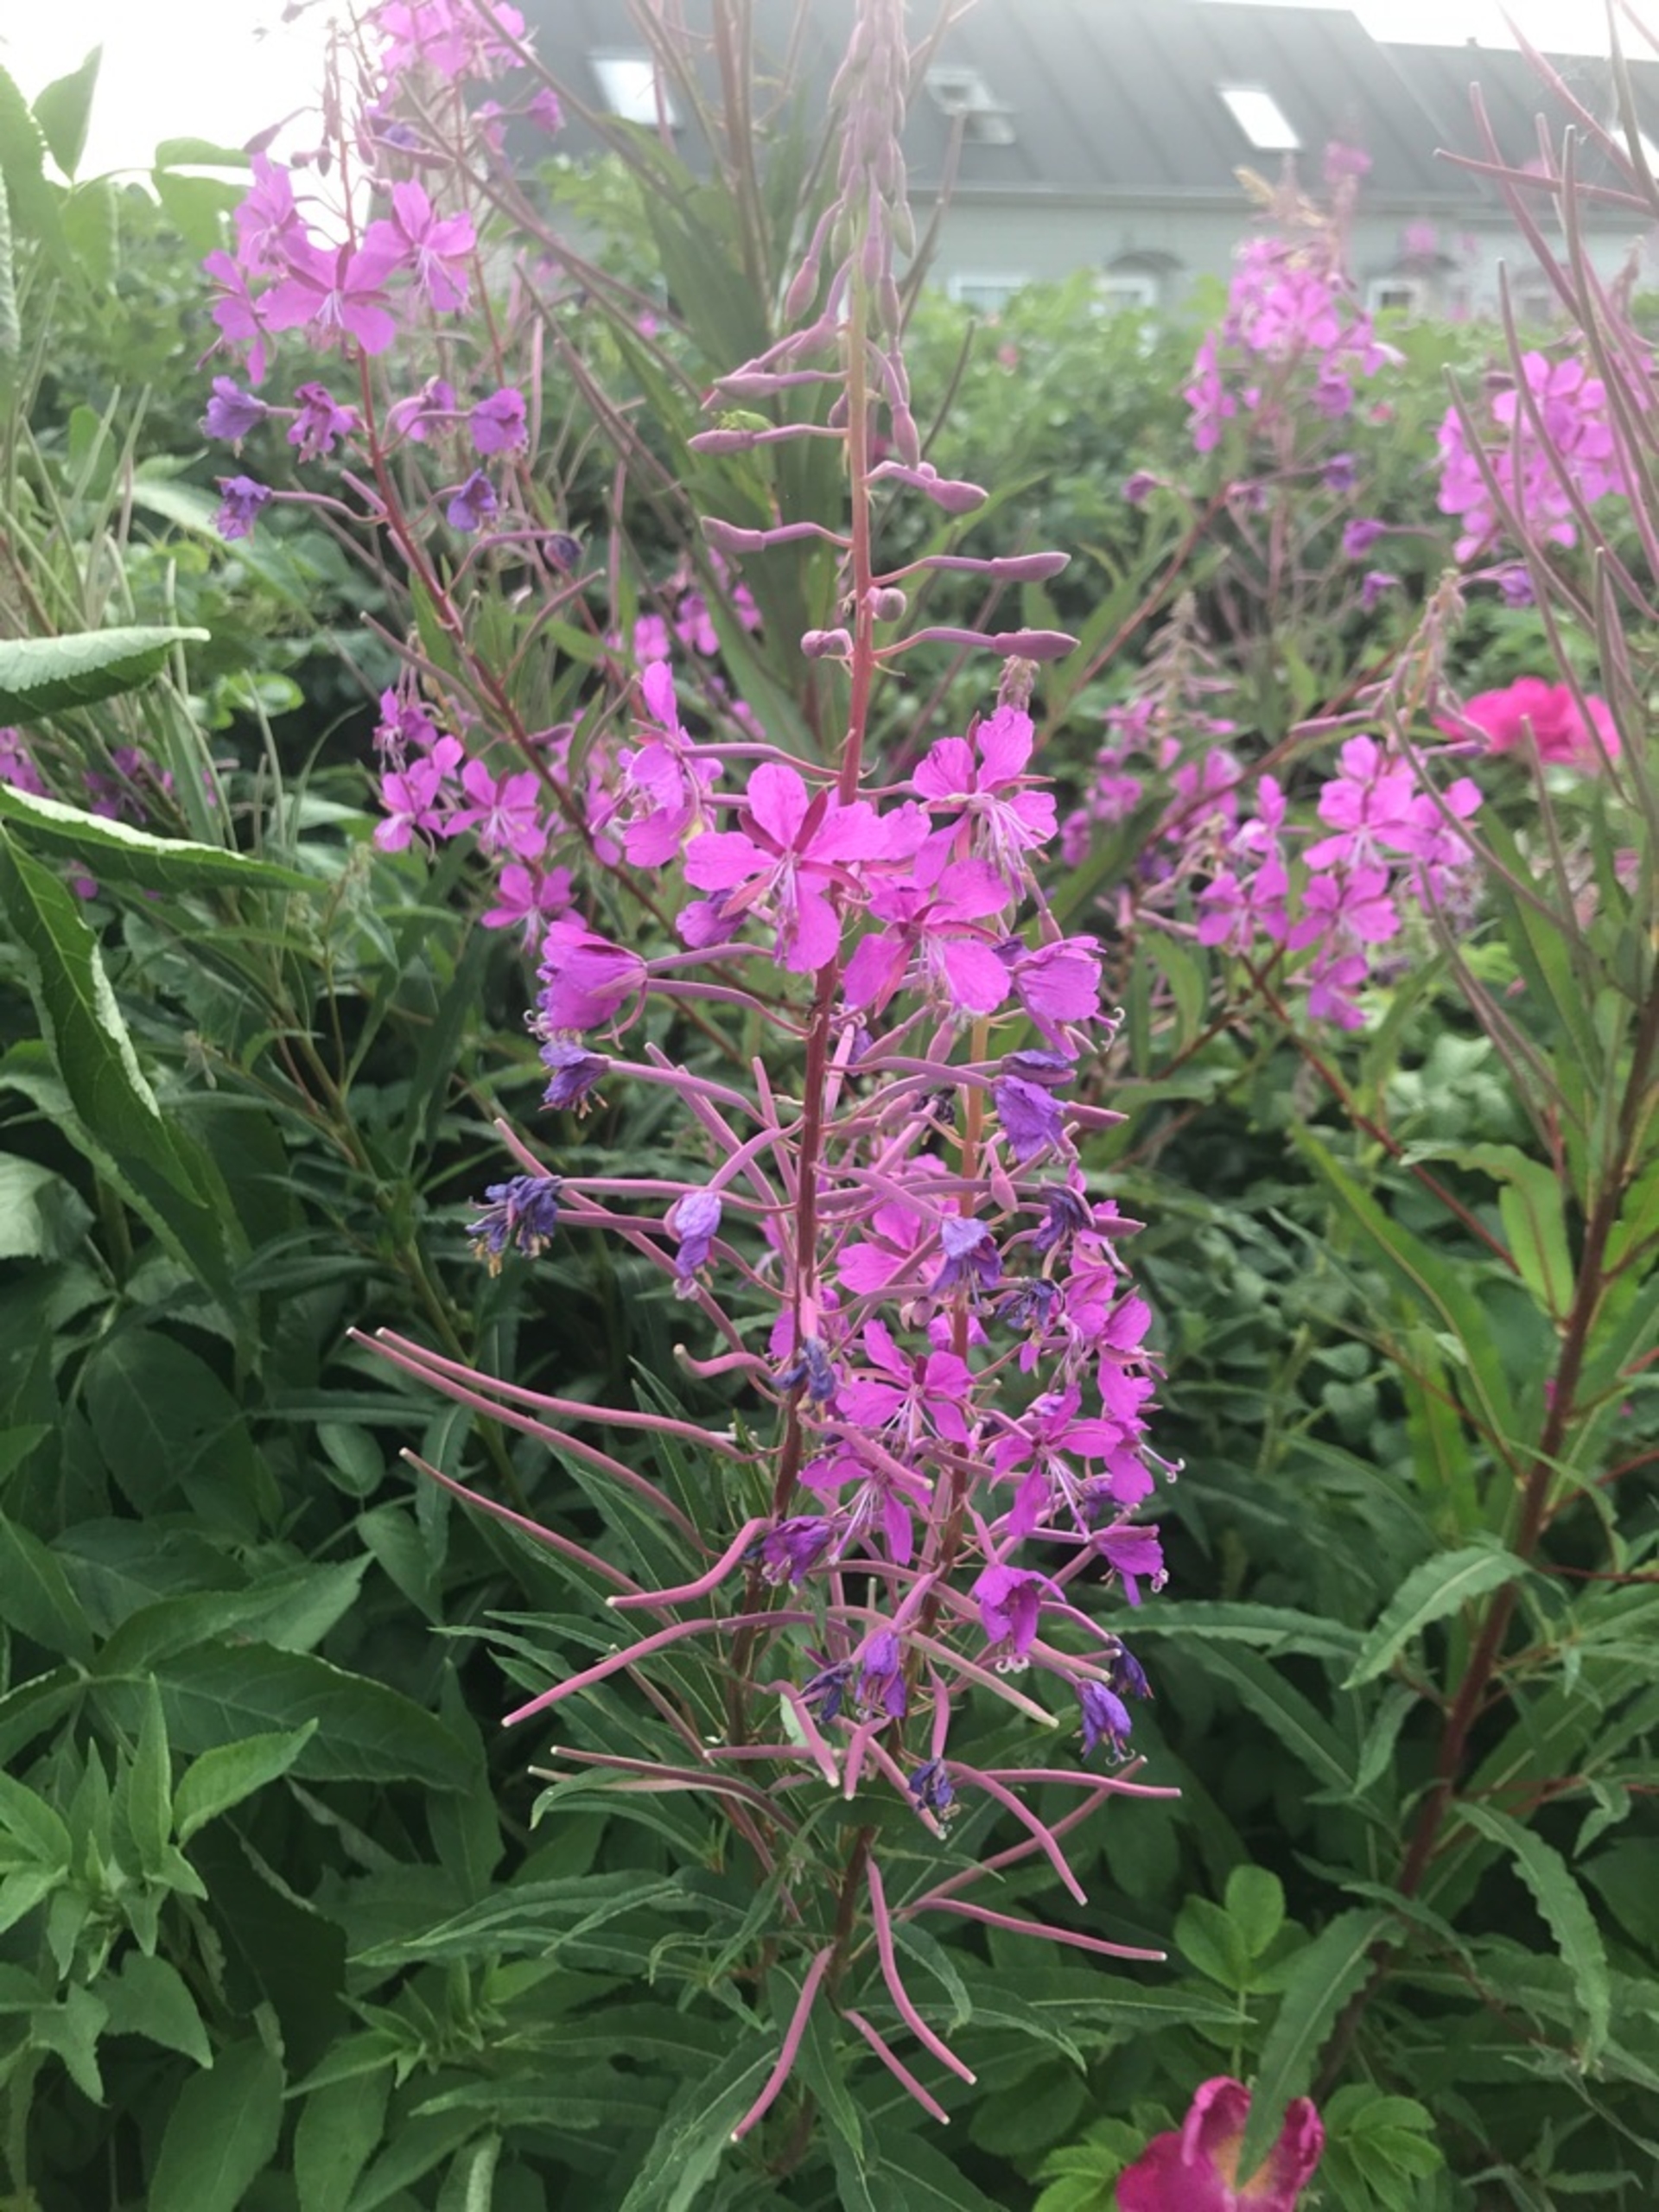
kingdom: Plantae
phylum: Tracheophyta
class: Magnoliopsida
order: Myrtales
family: Onagraceae
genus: Chamaenerion
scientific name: Chamaenerion angustifolium
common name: Gederams
